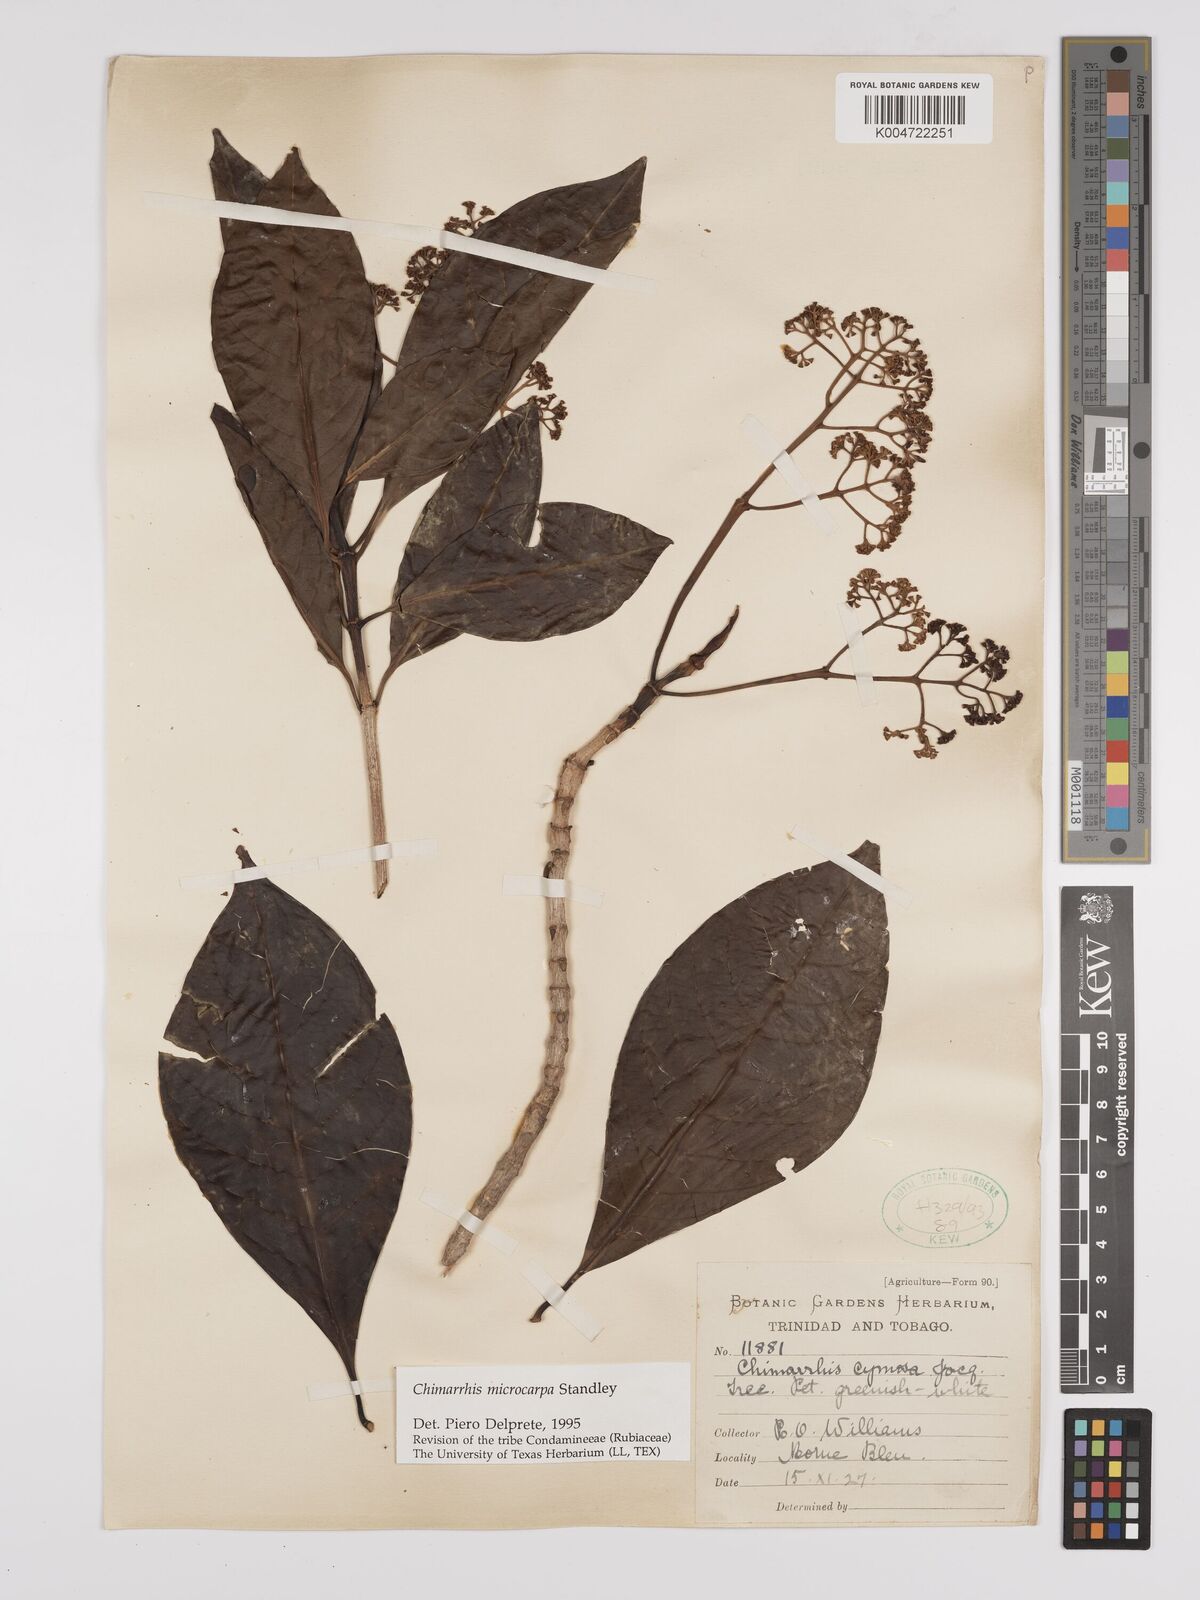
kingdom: Plantae
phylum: Tracheophyta
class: Magnoliopsida
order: Gentianales
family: Rubiaceae
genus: Chimarrhis
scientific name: Chimarrhis microcarpa
